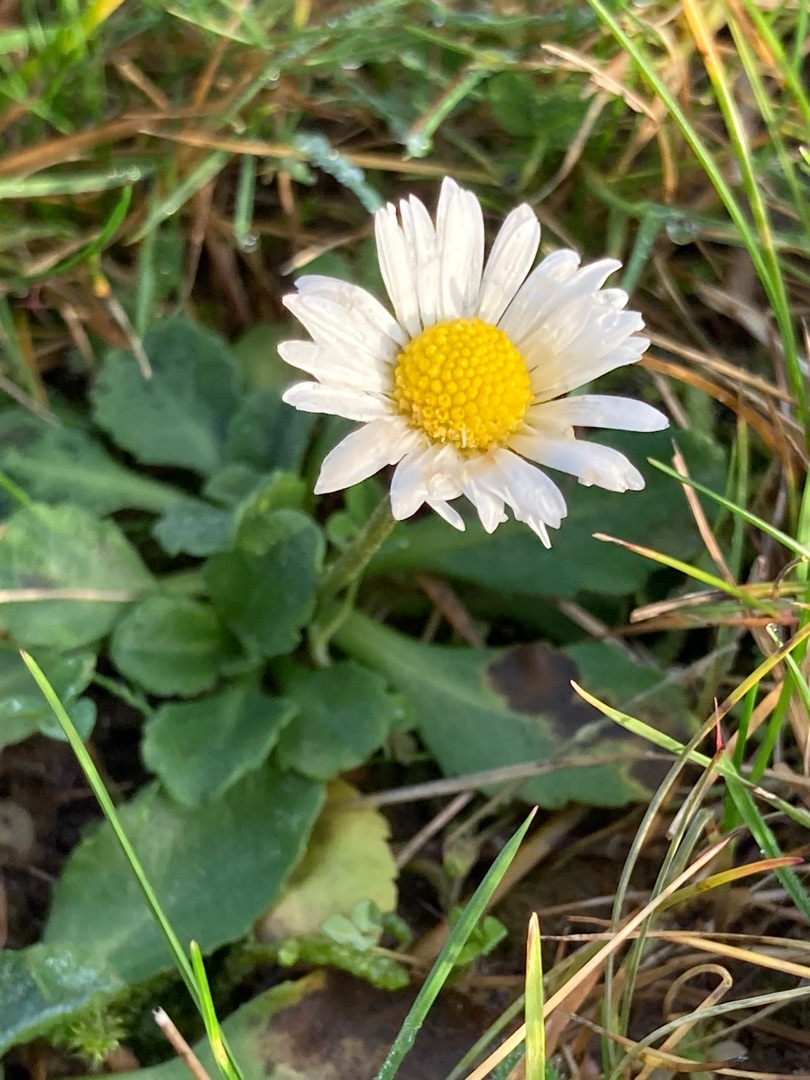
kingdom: Plantae
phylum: Tracheophyta
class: Magnoliopsida
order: Asterales
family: Asteraceae
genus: Bellis
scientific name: Bellis perennis
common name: Tusindfryd
